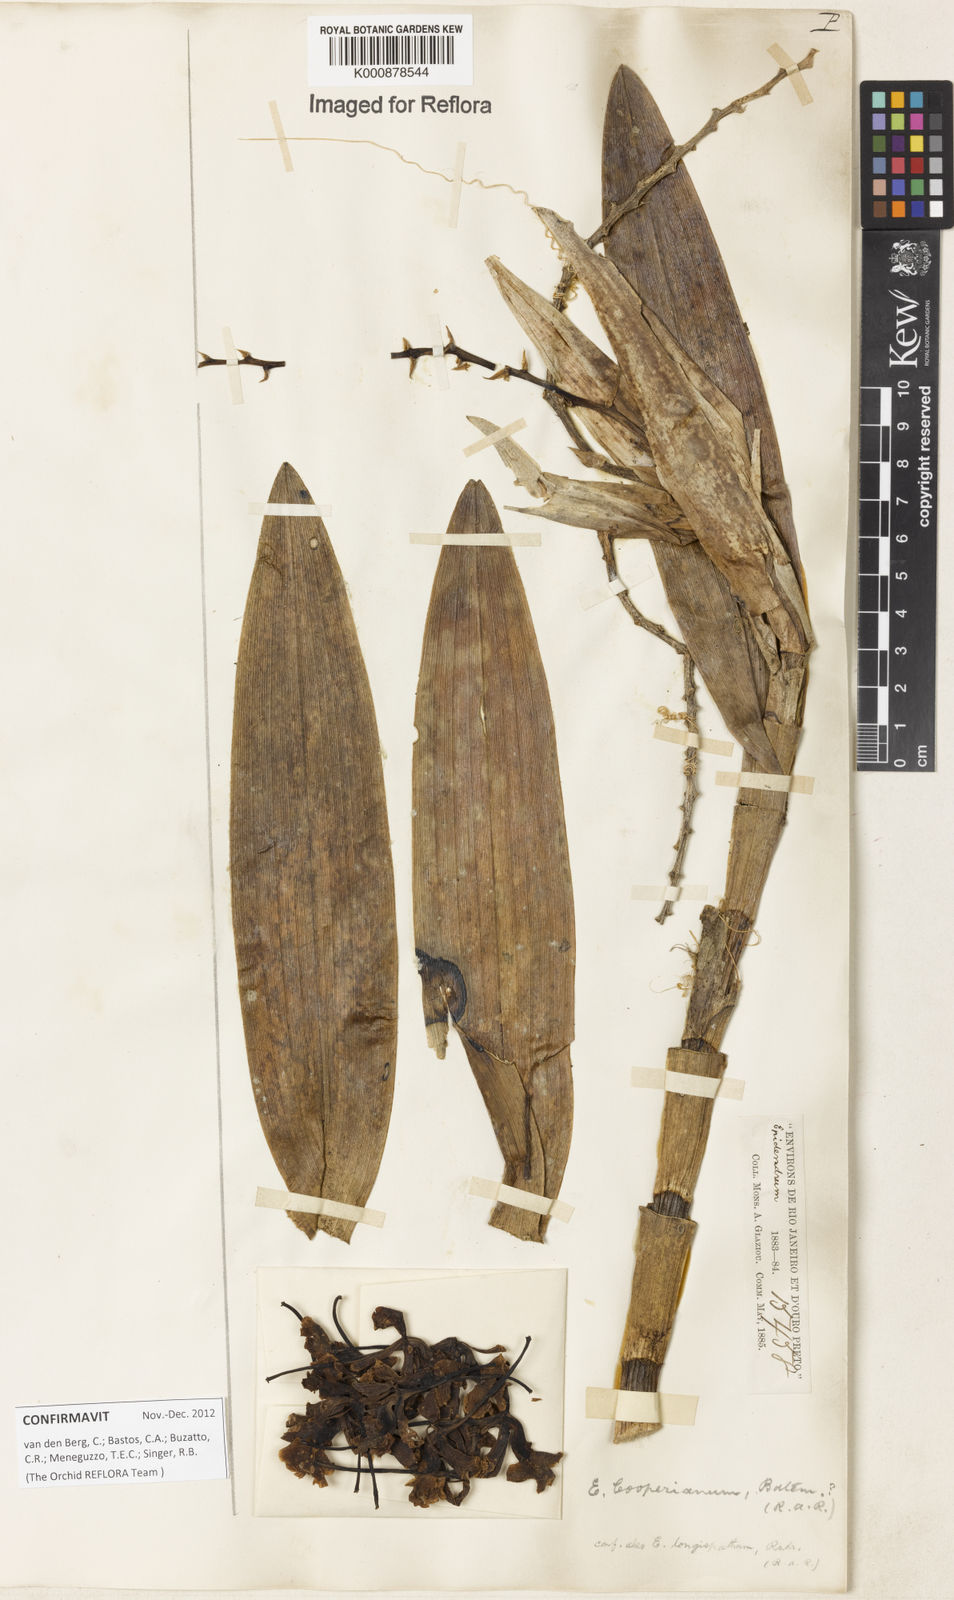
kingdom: Plantae
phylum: Tracheophyta
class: Liliopsida
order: Asparagales
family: Orchidaceae
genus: Epidendrum
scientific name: Epidendrum cooperianum
